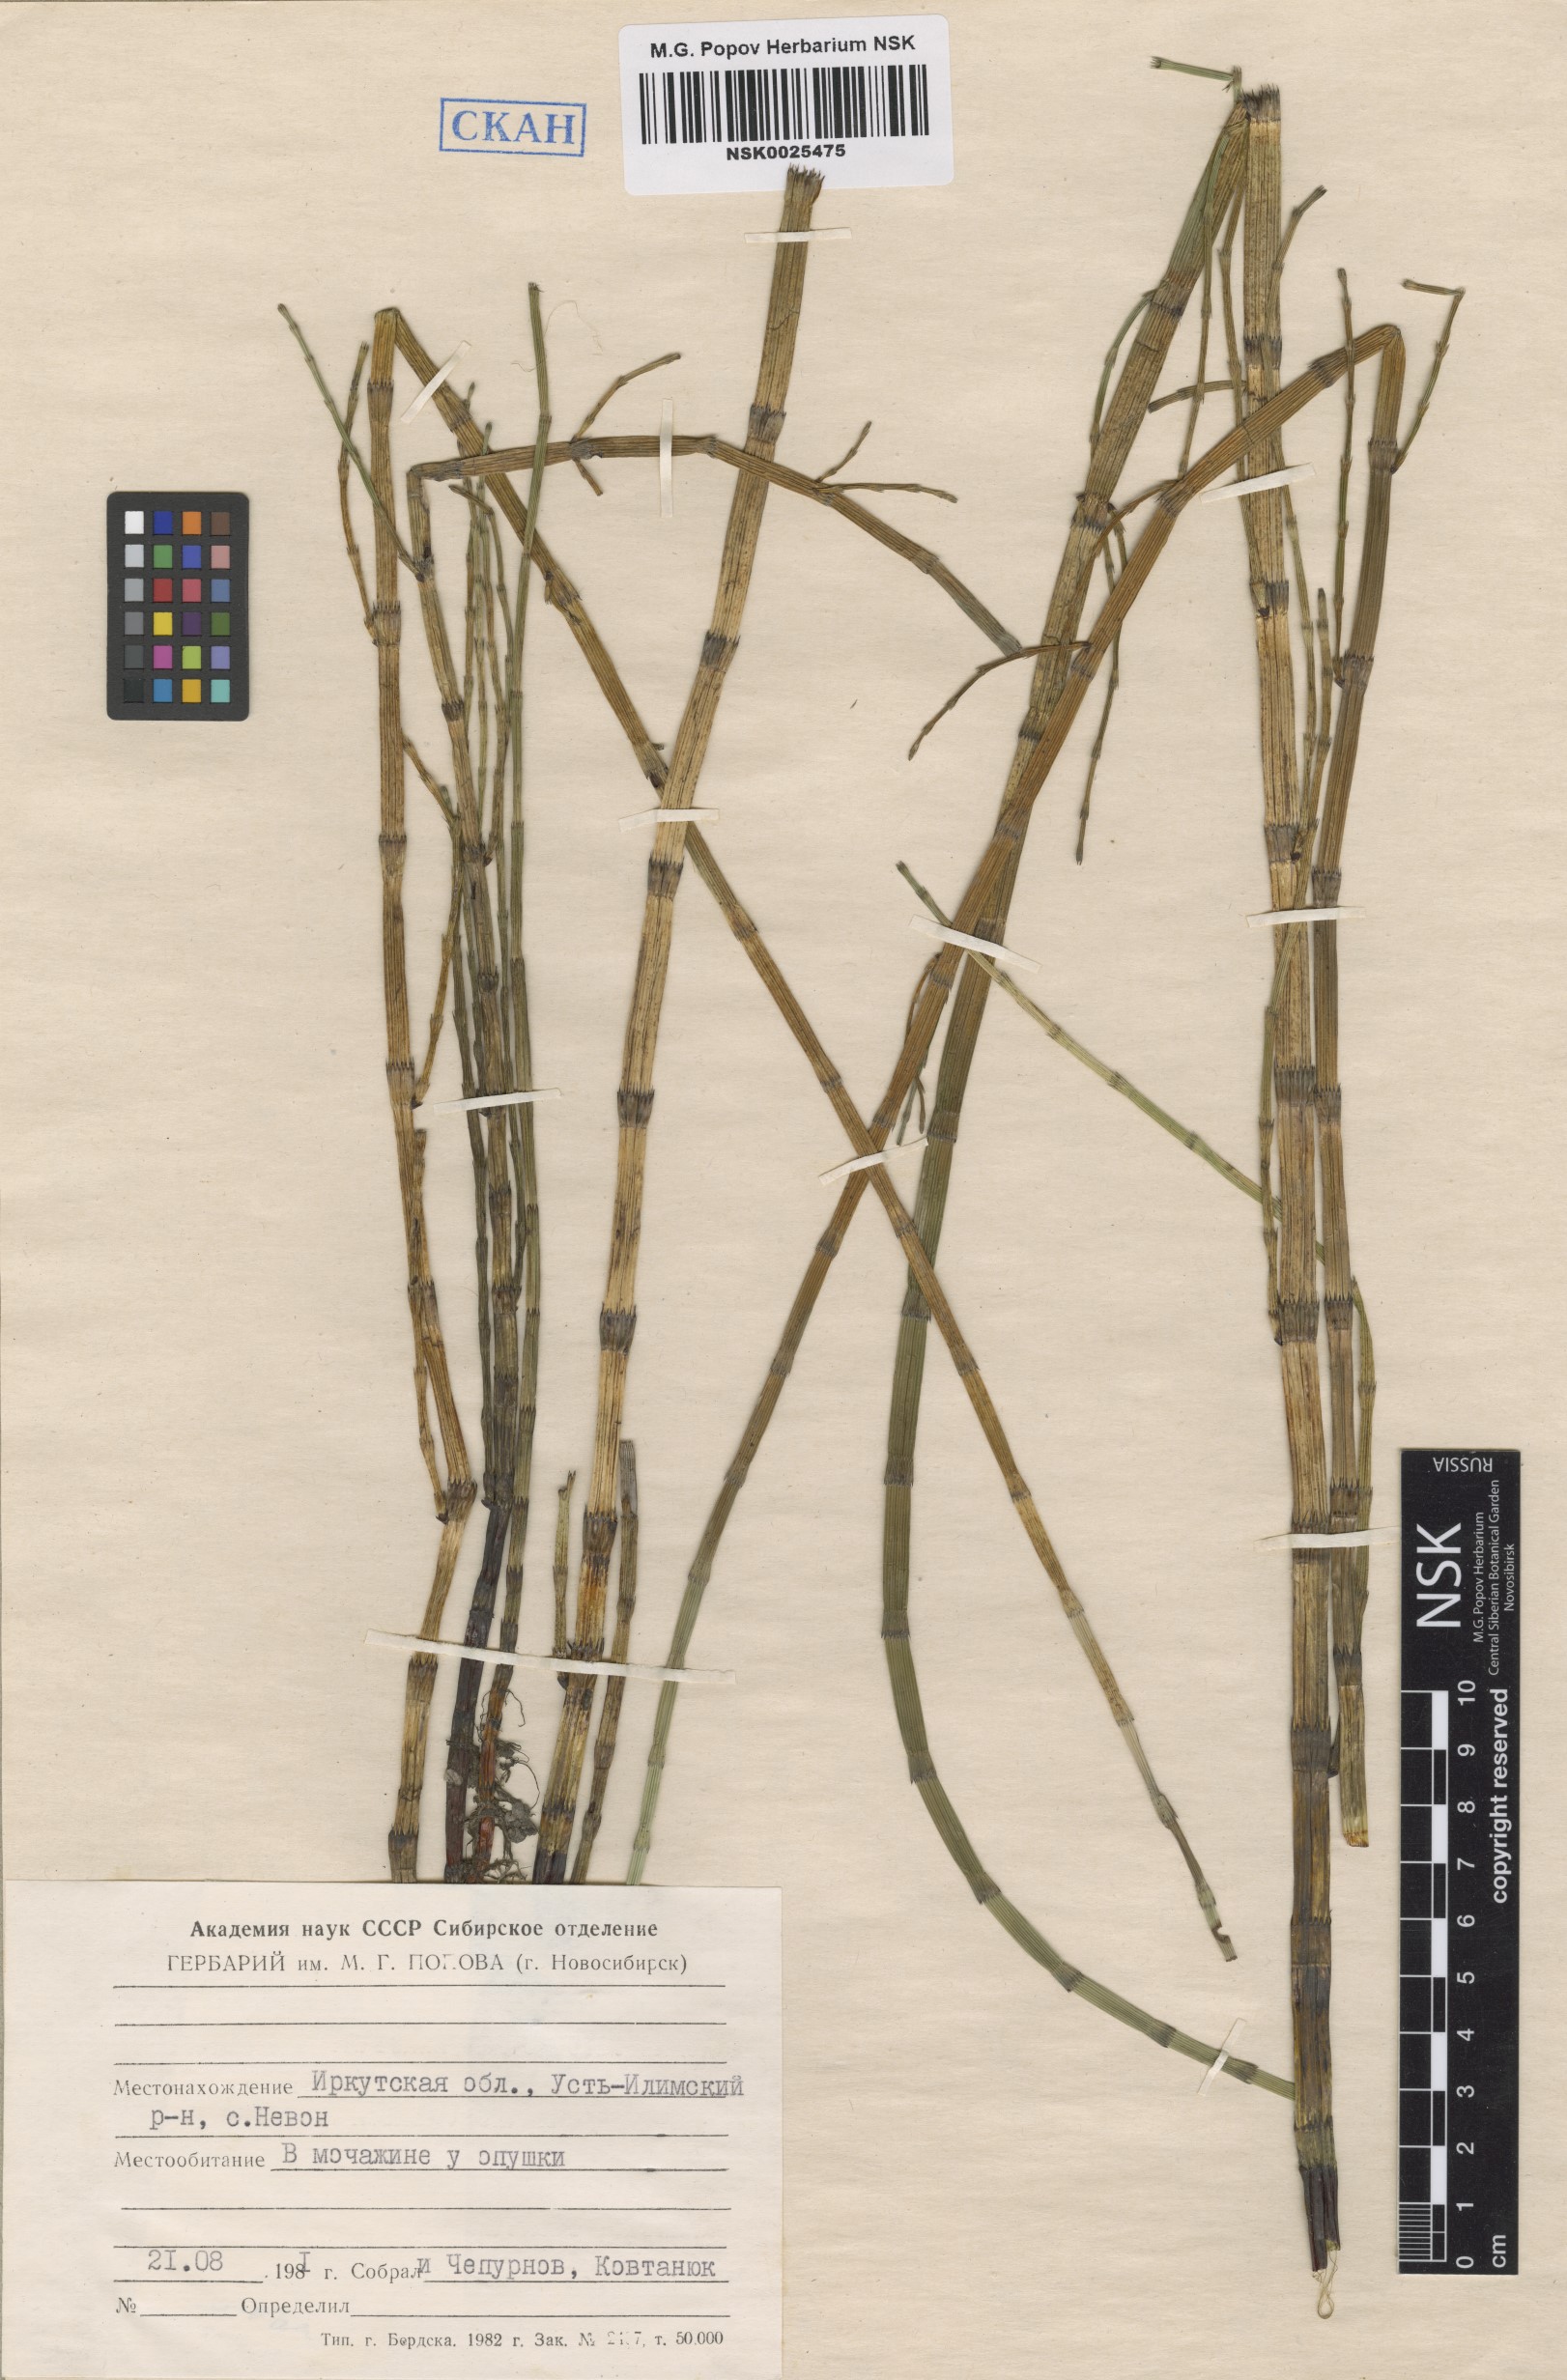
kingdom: Plantae
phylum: Tracheophyta
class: Polypodiopsida
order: Equisetales
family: Equisetaceae
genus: Equisetum
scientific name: Equisetum fluviatile
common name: Water horsetail
